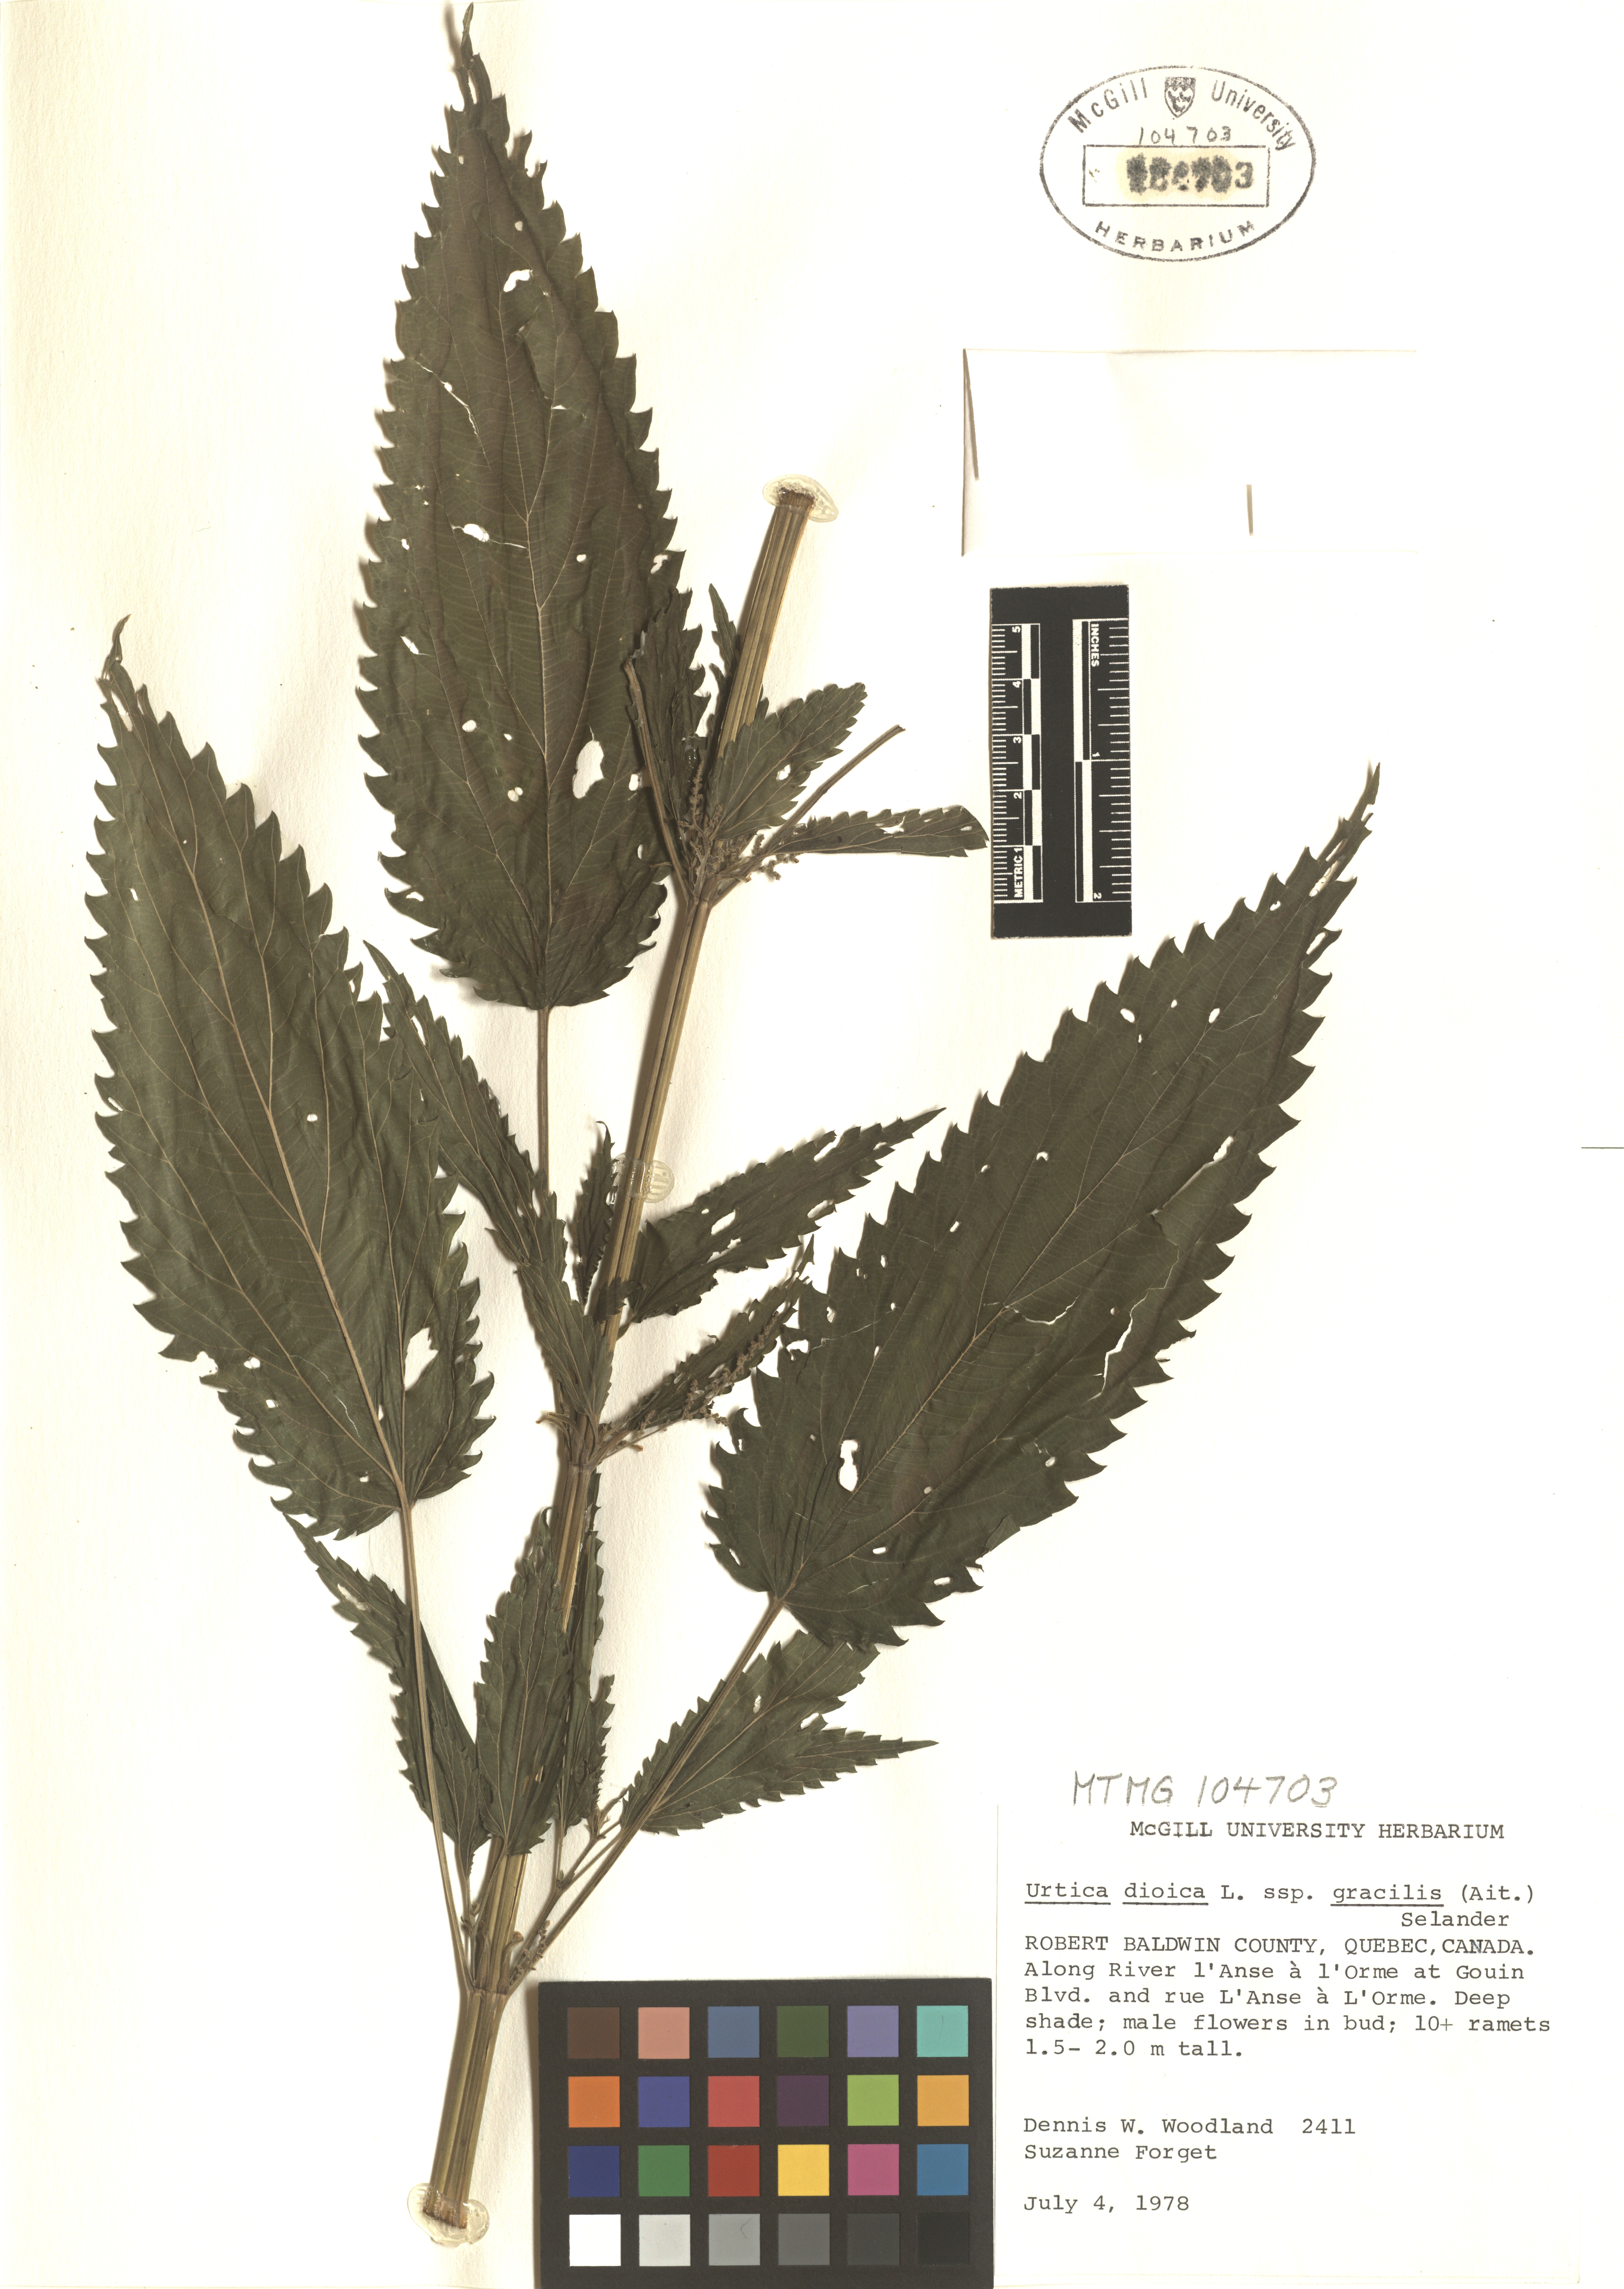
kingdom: Plantae
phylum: Tracheophyta
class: Magnoliopsida
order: Rosales
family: Urticaceae
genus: Urtica
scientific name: Urtica gracilis
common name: Slender stinging nettle
